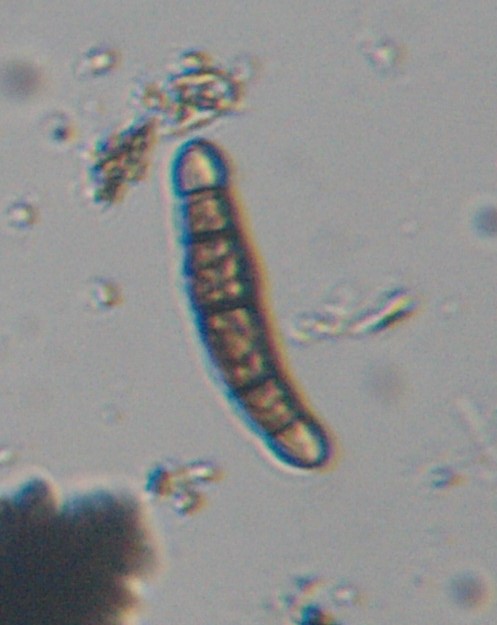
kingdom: Plantae
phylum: Bryophyta
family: Dothideomycetes
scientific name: Dothideomycetes
